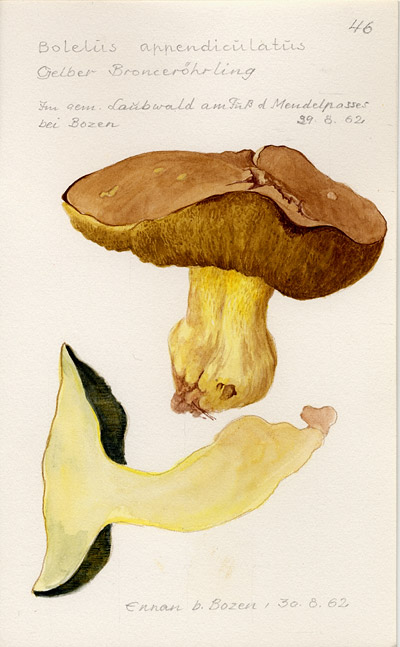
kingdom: Fungi
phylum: Basidiomycota
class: Agaricomycetes
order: Boletales
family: Boletaceae
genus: Butyriboletus
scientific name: Butyriboletus appendiculatus
